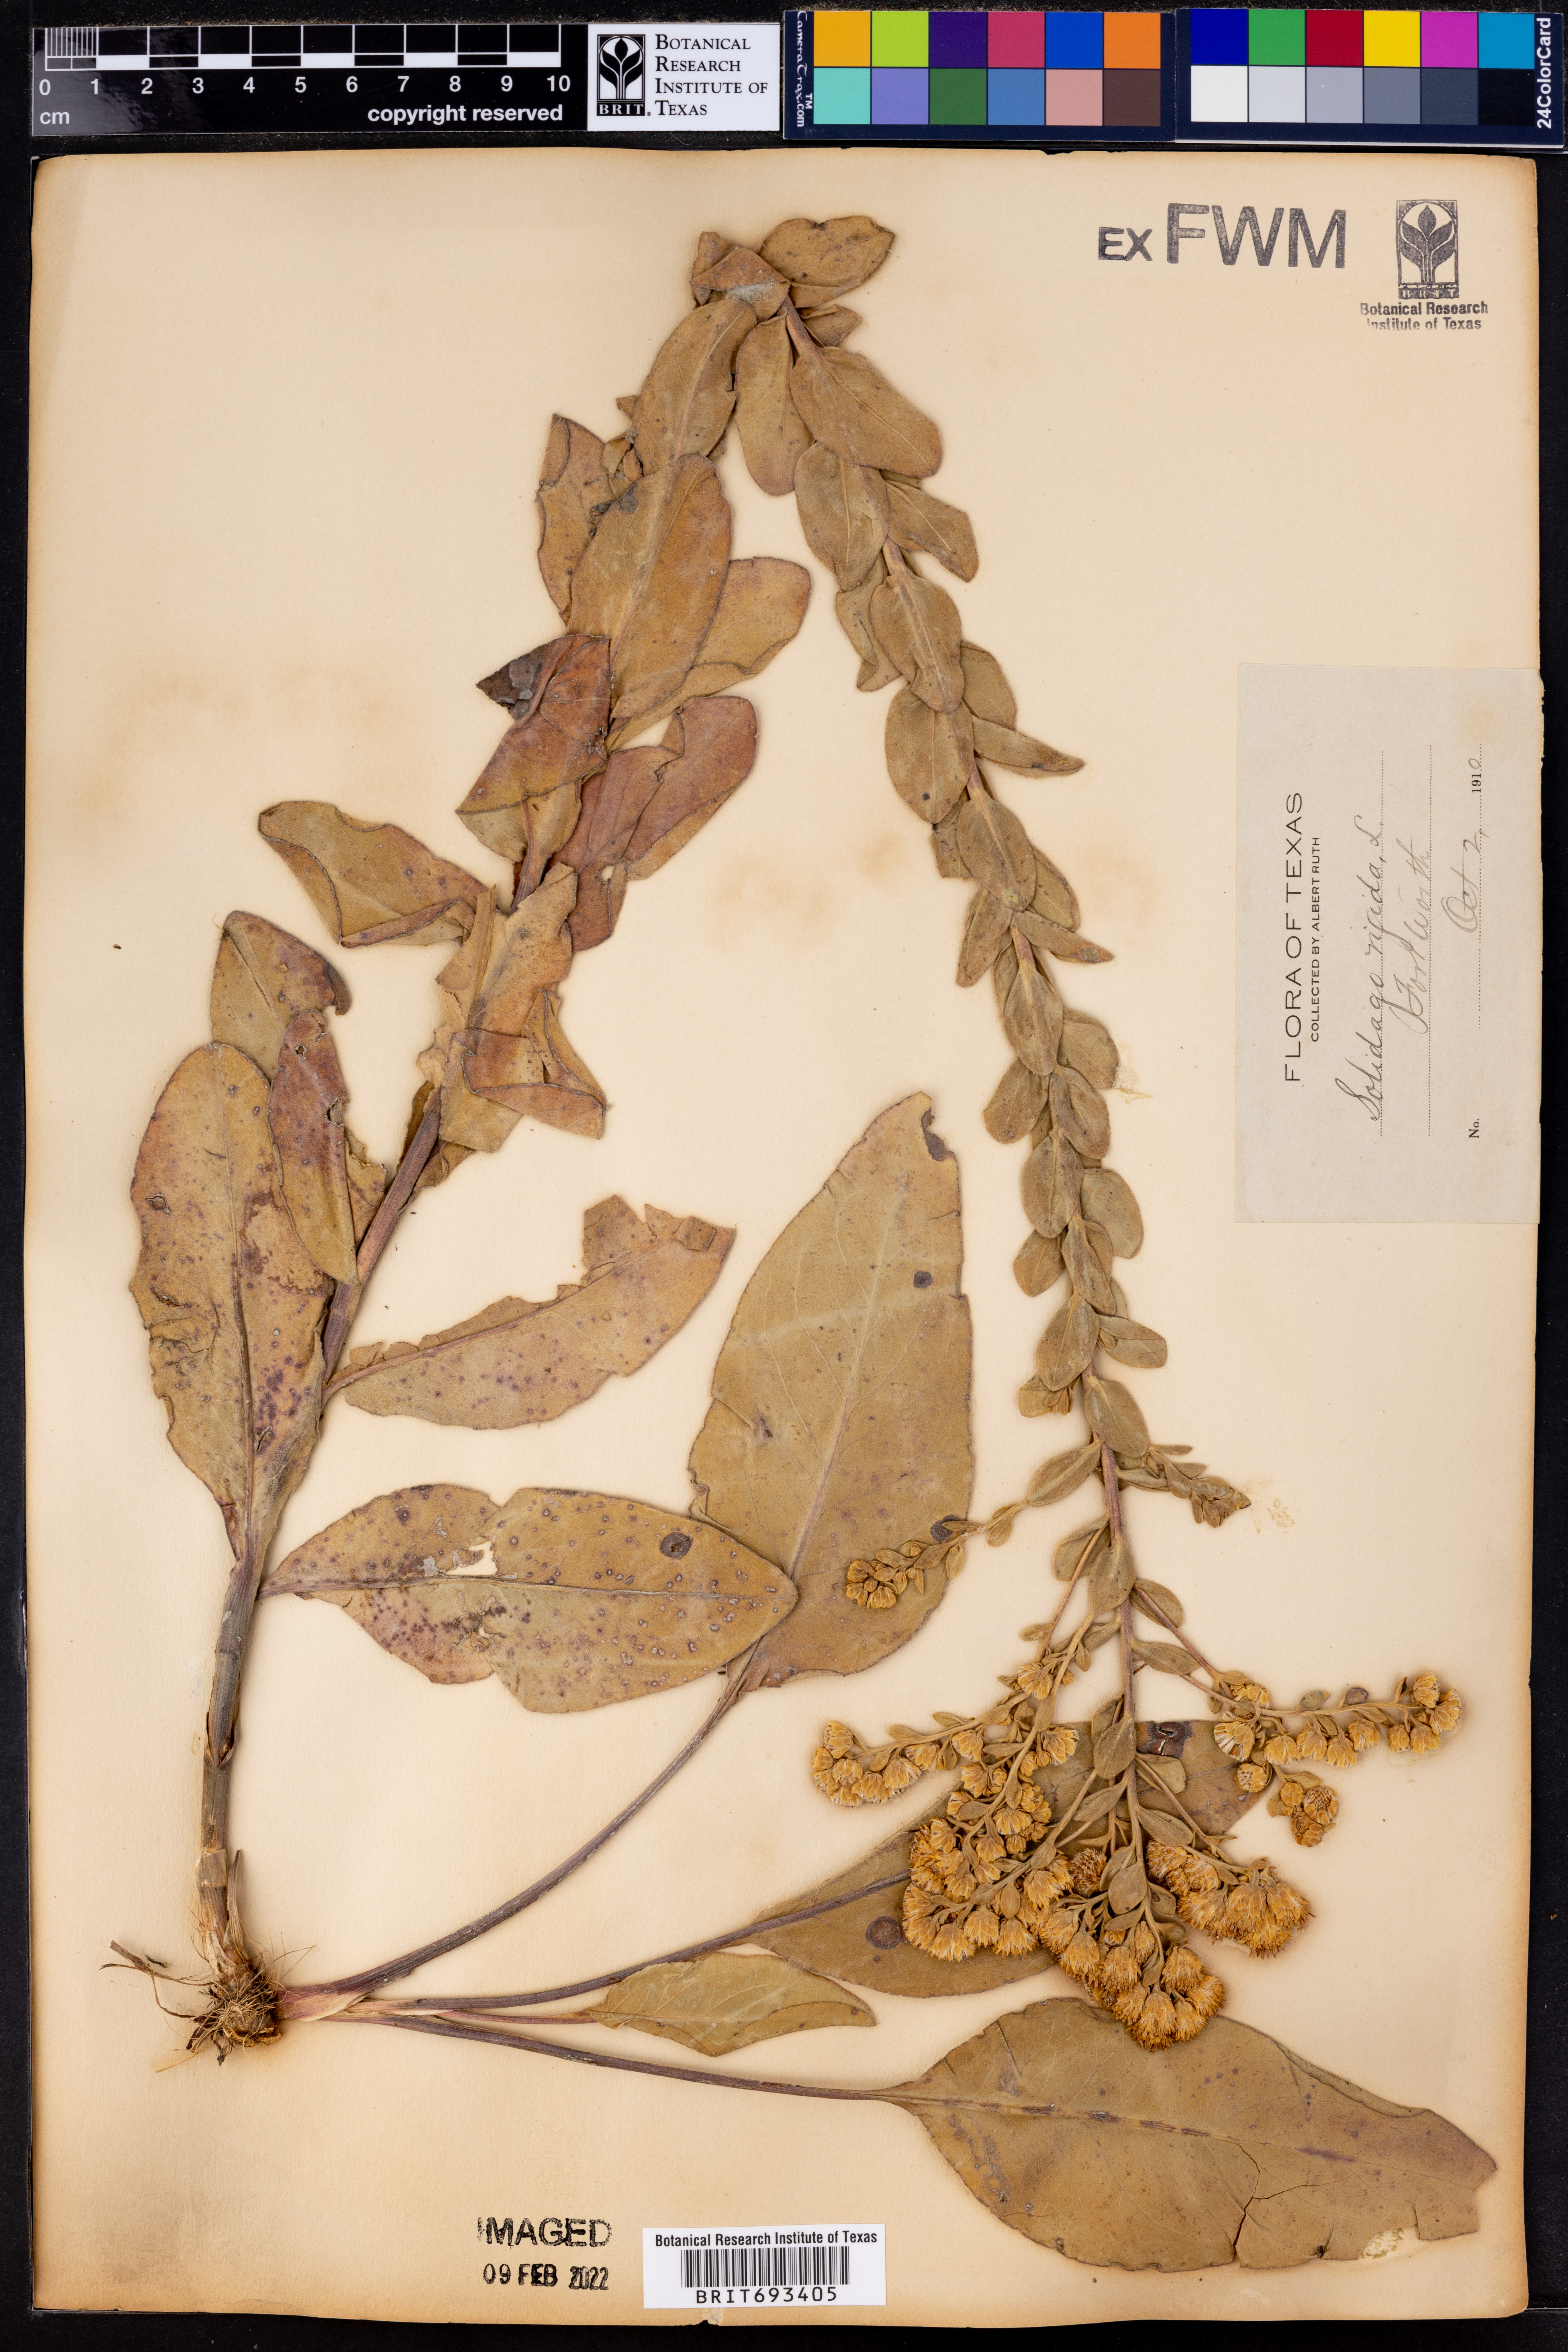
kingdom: Plantae
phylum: Tracheophyta
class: Magnoliopsida
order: Asterales
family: Asteraceae
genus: Solidago
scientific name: Solidago rigida
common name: Rigid goldenrod
